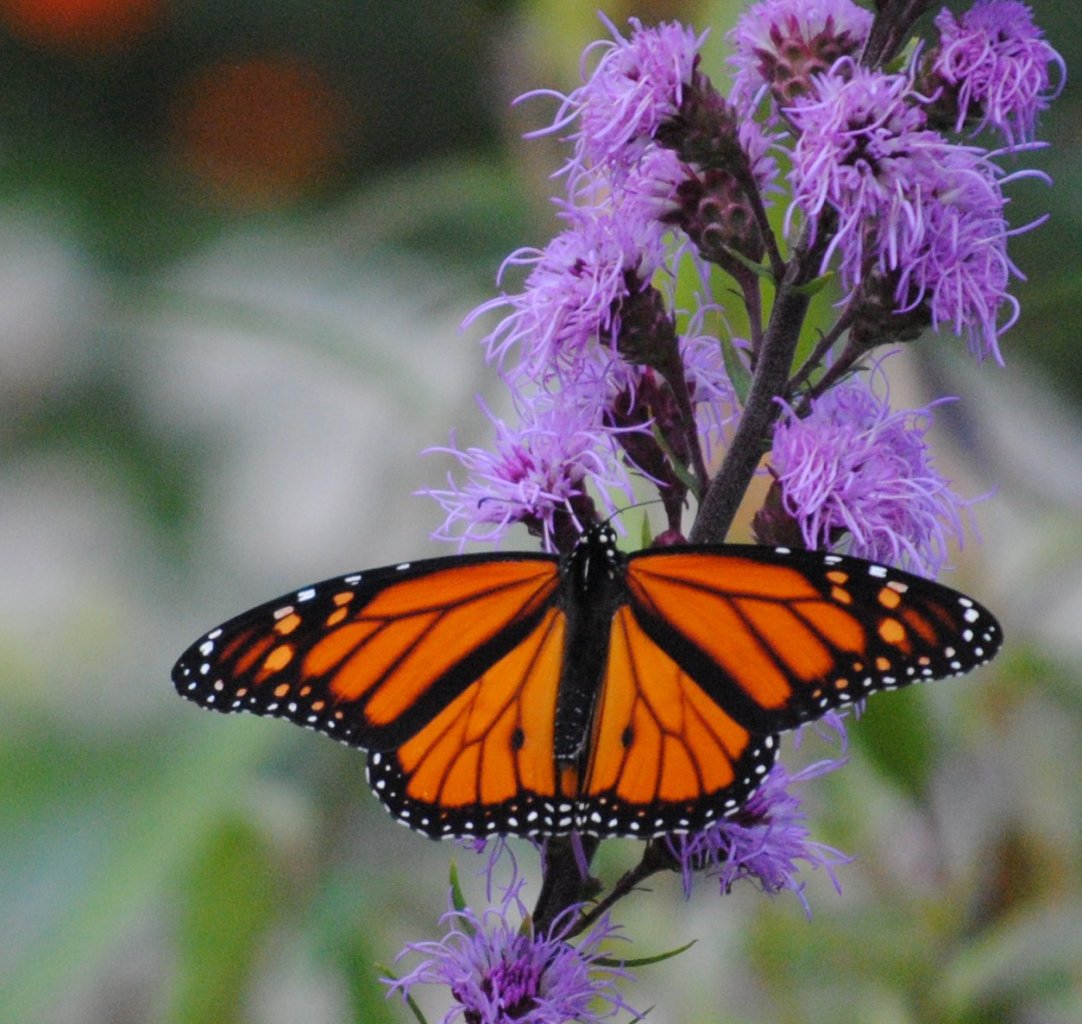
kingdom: Animalia
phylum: Arthropoda
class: Insecta
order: Lepidoptera
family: Nymphalidae
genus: Danaus
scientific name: Danaus plexippus
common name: Monarch
